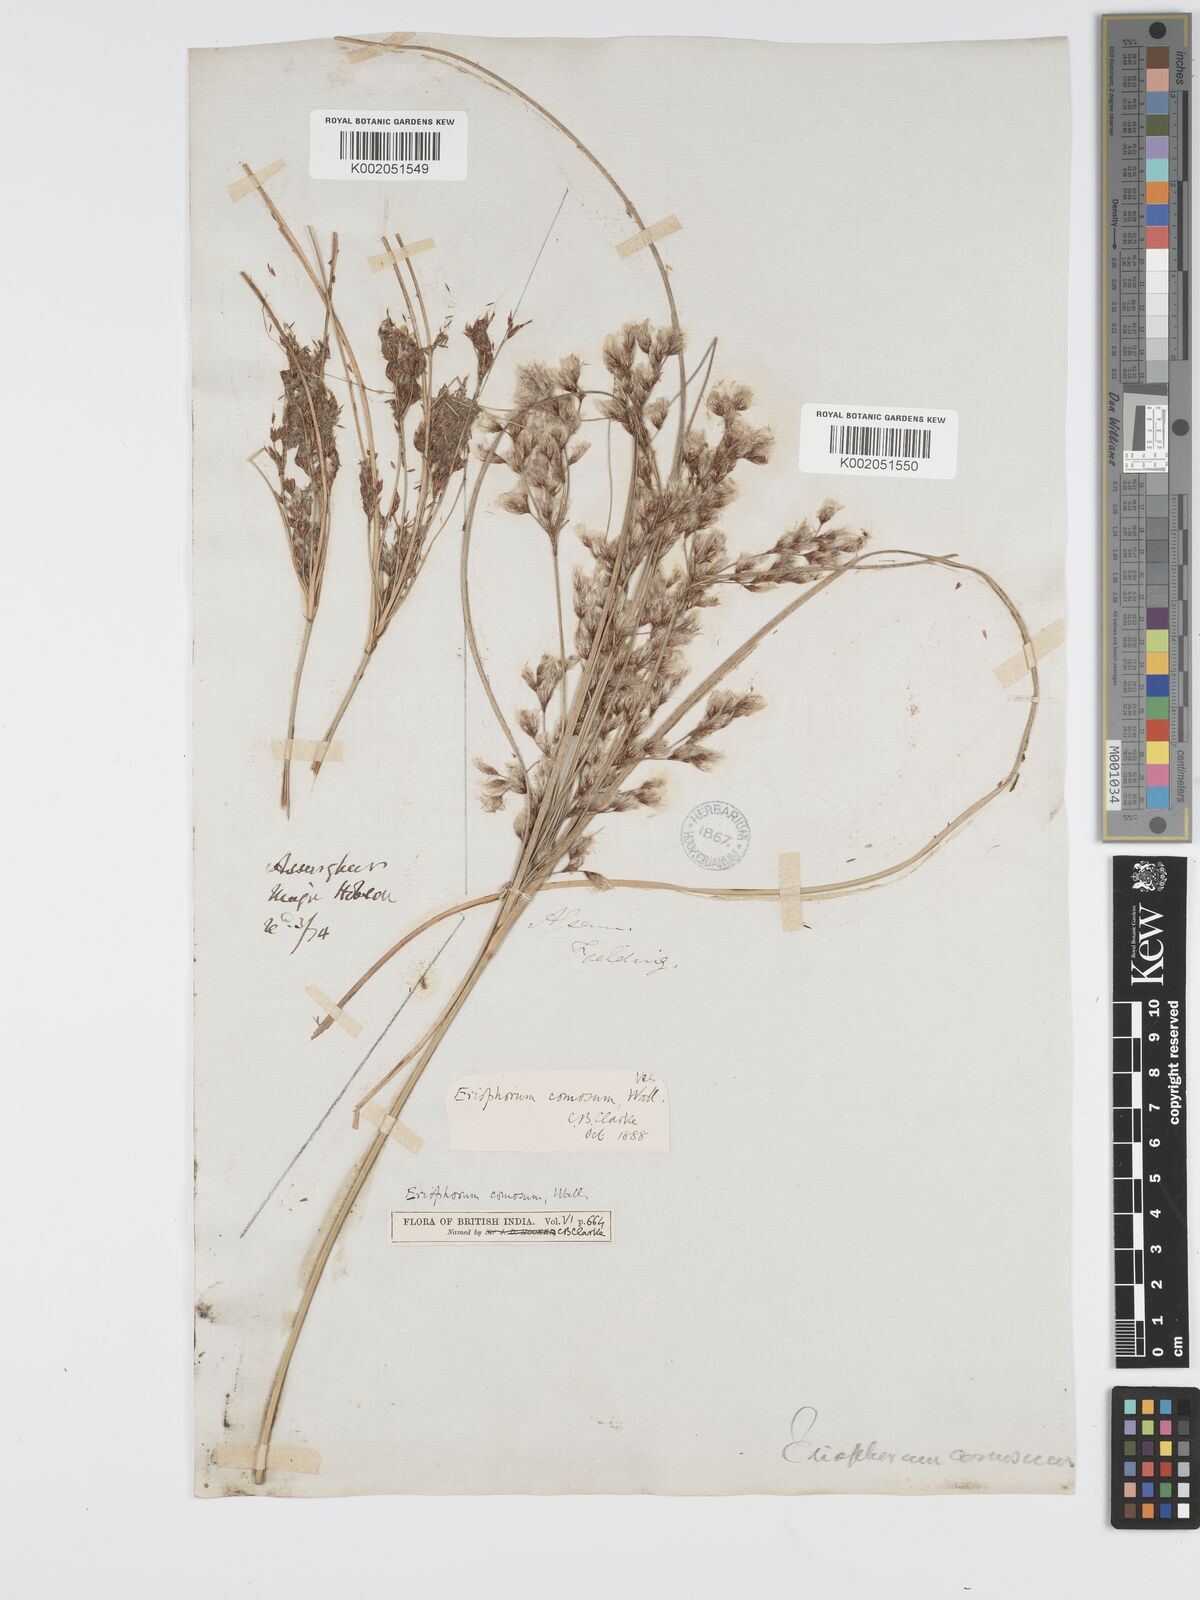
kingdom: Plantae
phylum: Tracheophyta
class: Liliopsida
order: Poales
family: Cyperaceae
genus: Erioscirpus
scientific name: Erioscirpus comosus
